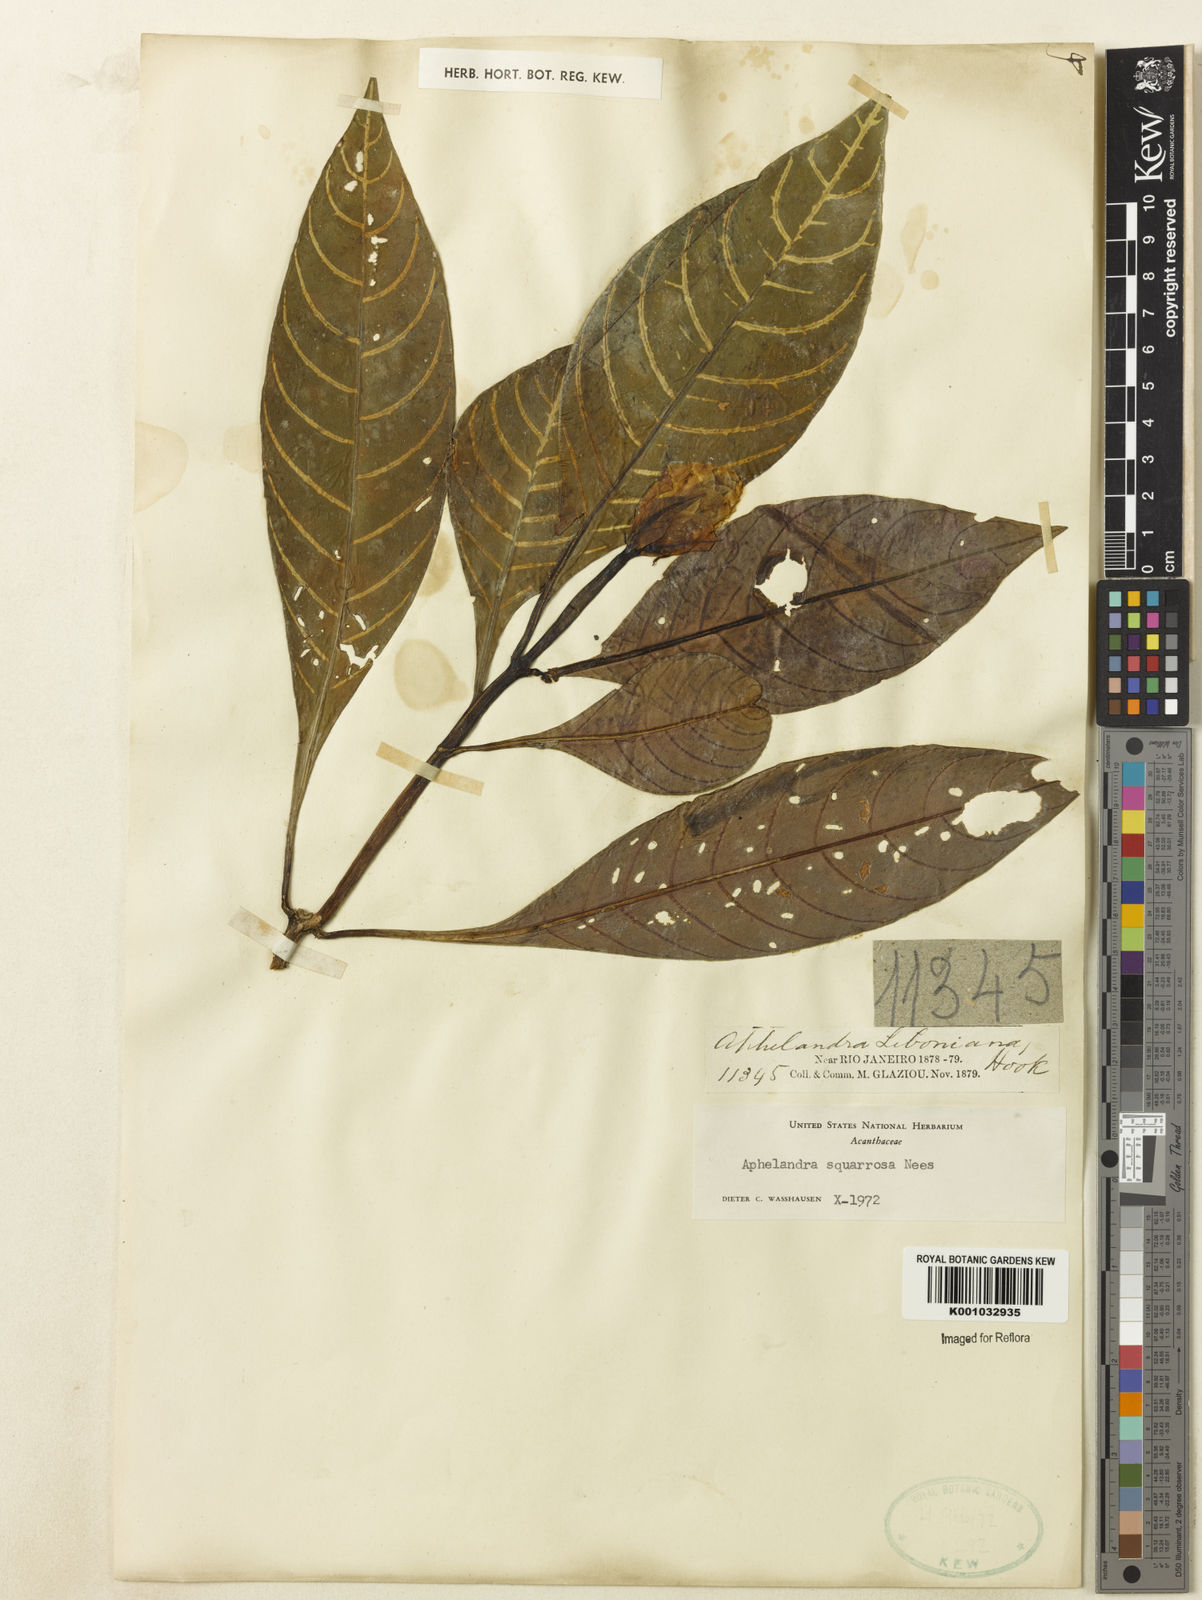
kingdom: Plantae
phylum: Tracheophyta
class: Magnoliopsida
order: Lamiales
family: Acanthaceae
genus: Aphelandra
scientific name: Aphelandra squarrosa
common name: Saffron spike
